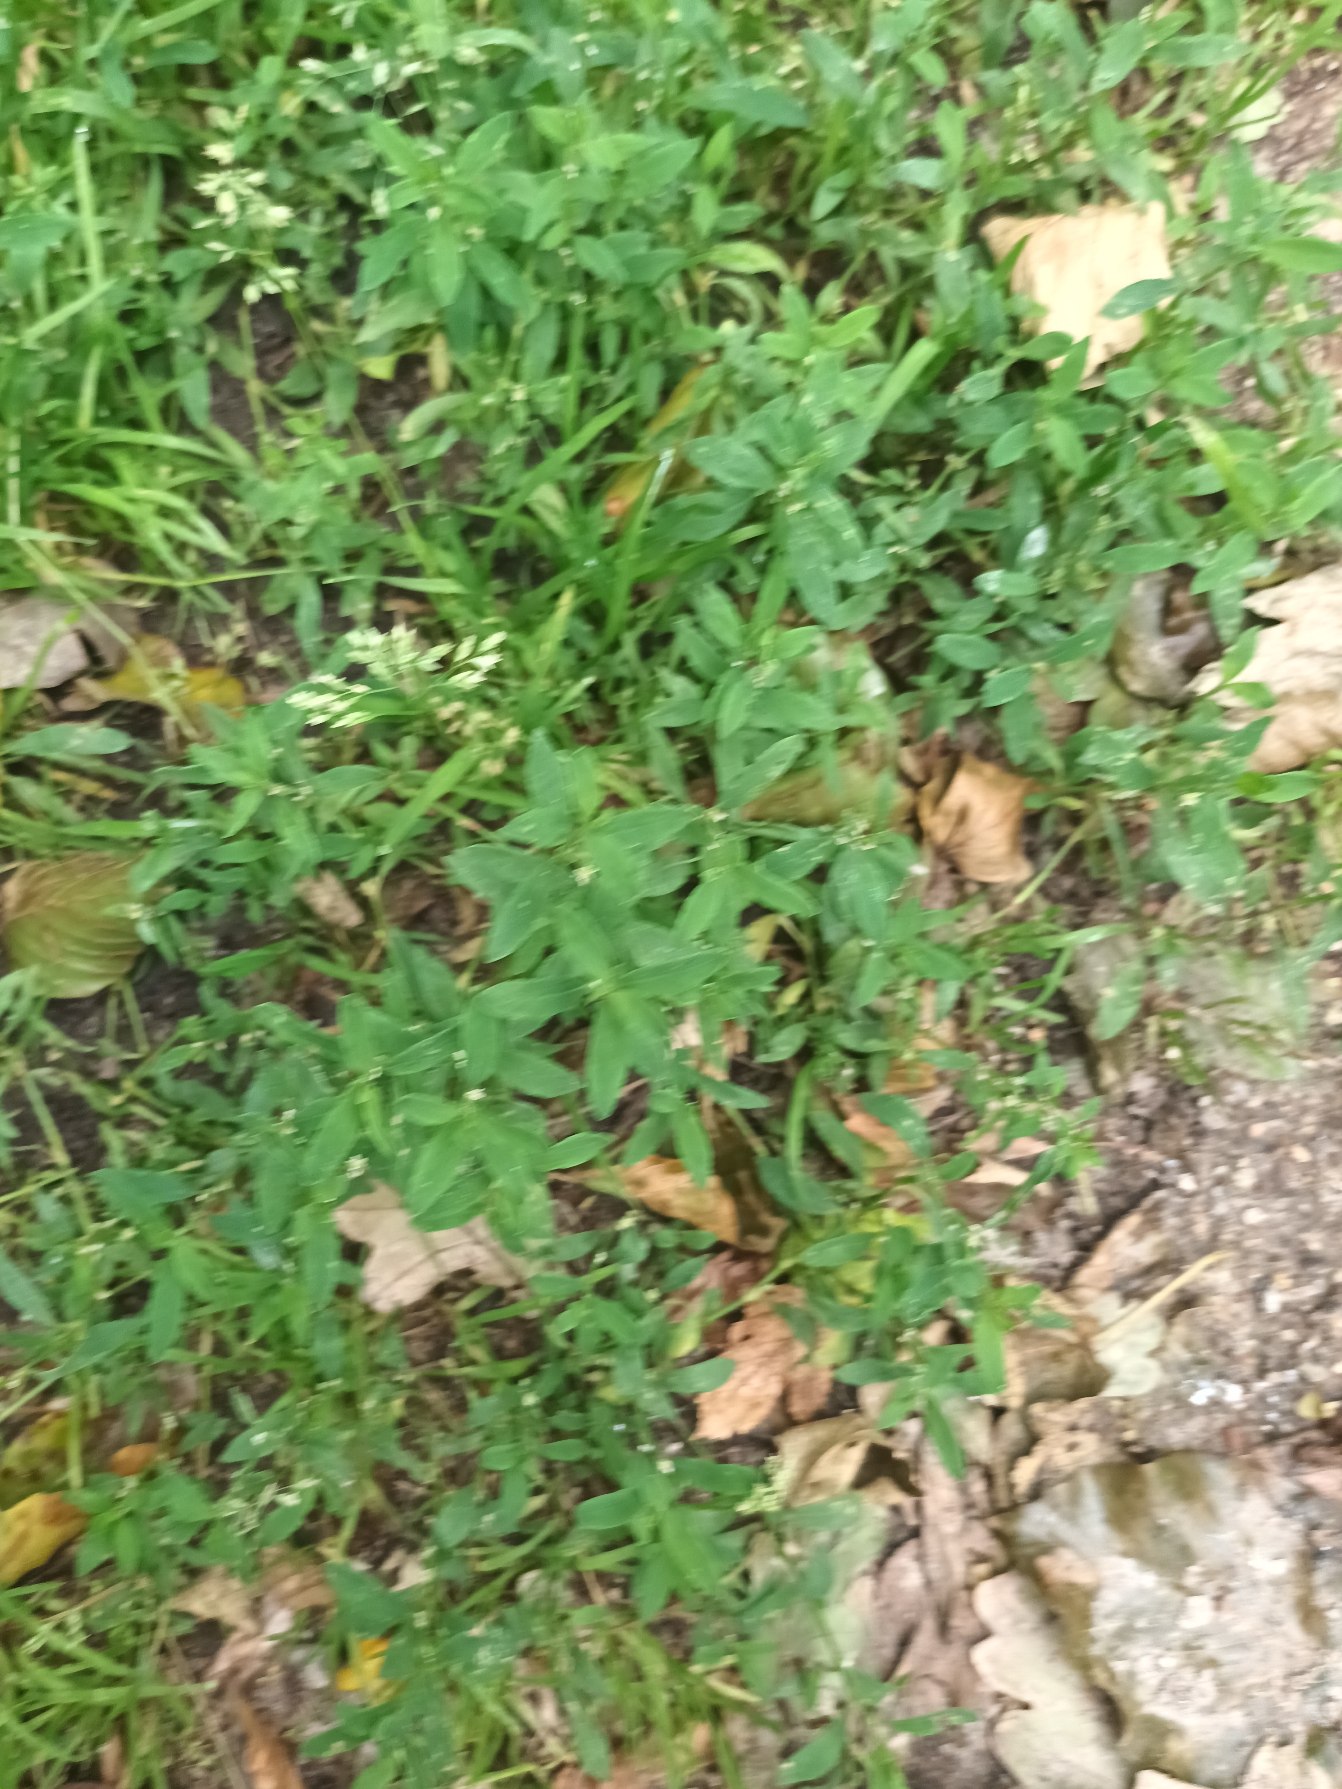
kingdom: Plantae
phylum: Tracheophyta
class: Magnoliopsida
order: Caryophyllales
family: Polygonaceae
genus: Polygonum
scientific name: Polygonum arenastrum
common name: Liggende vej-pileurt
